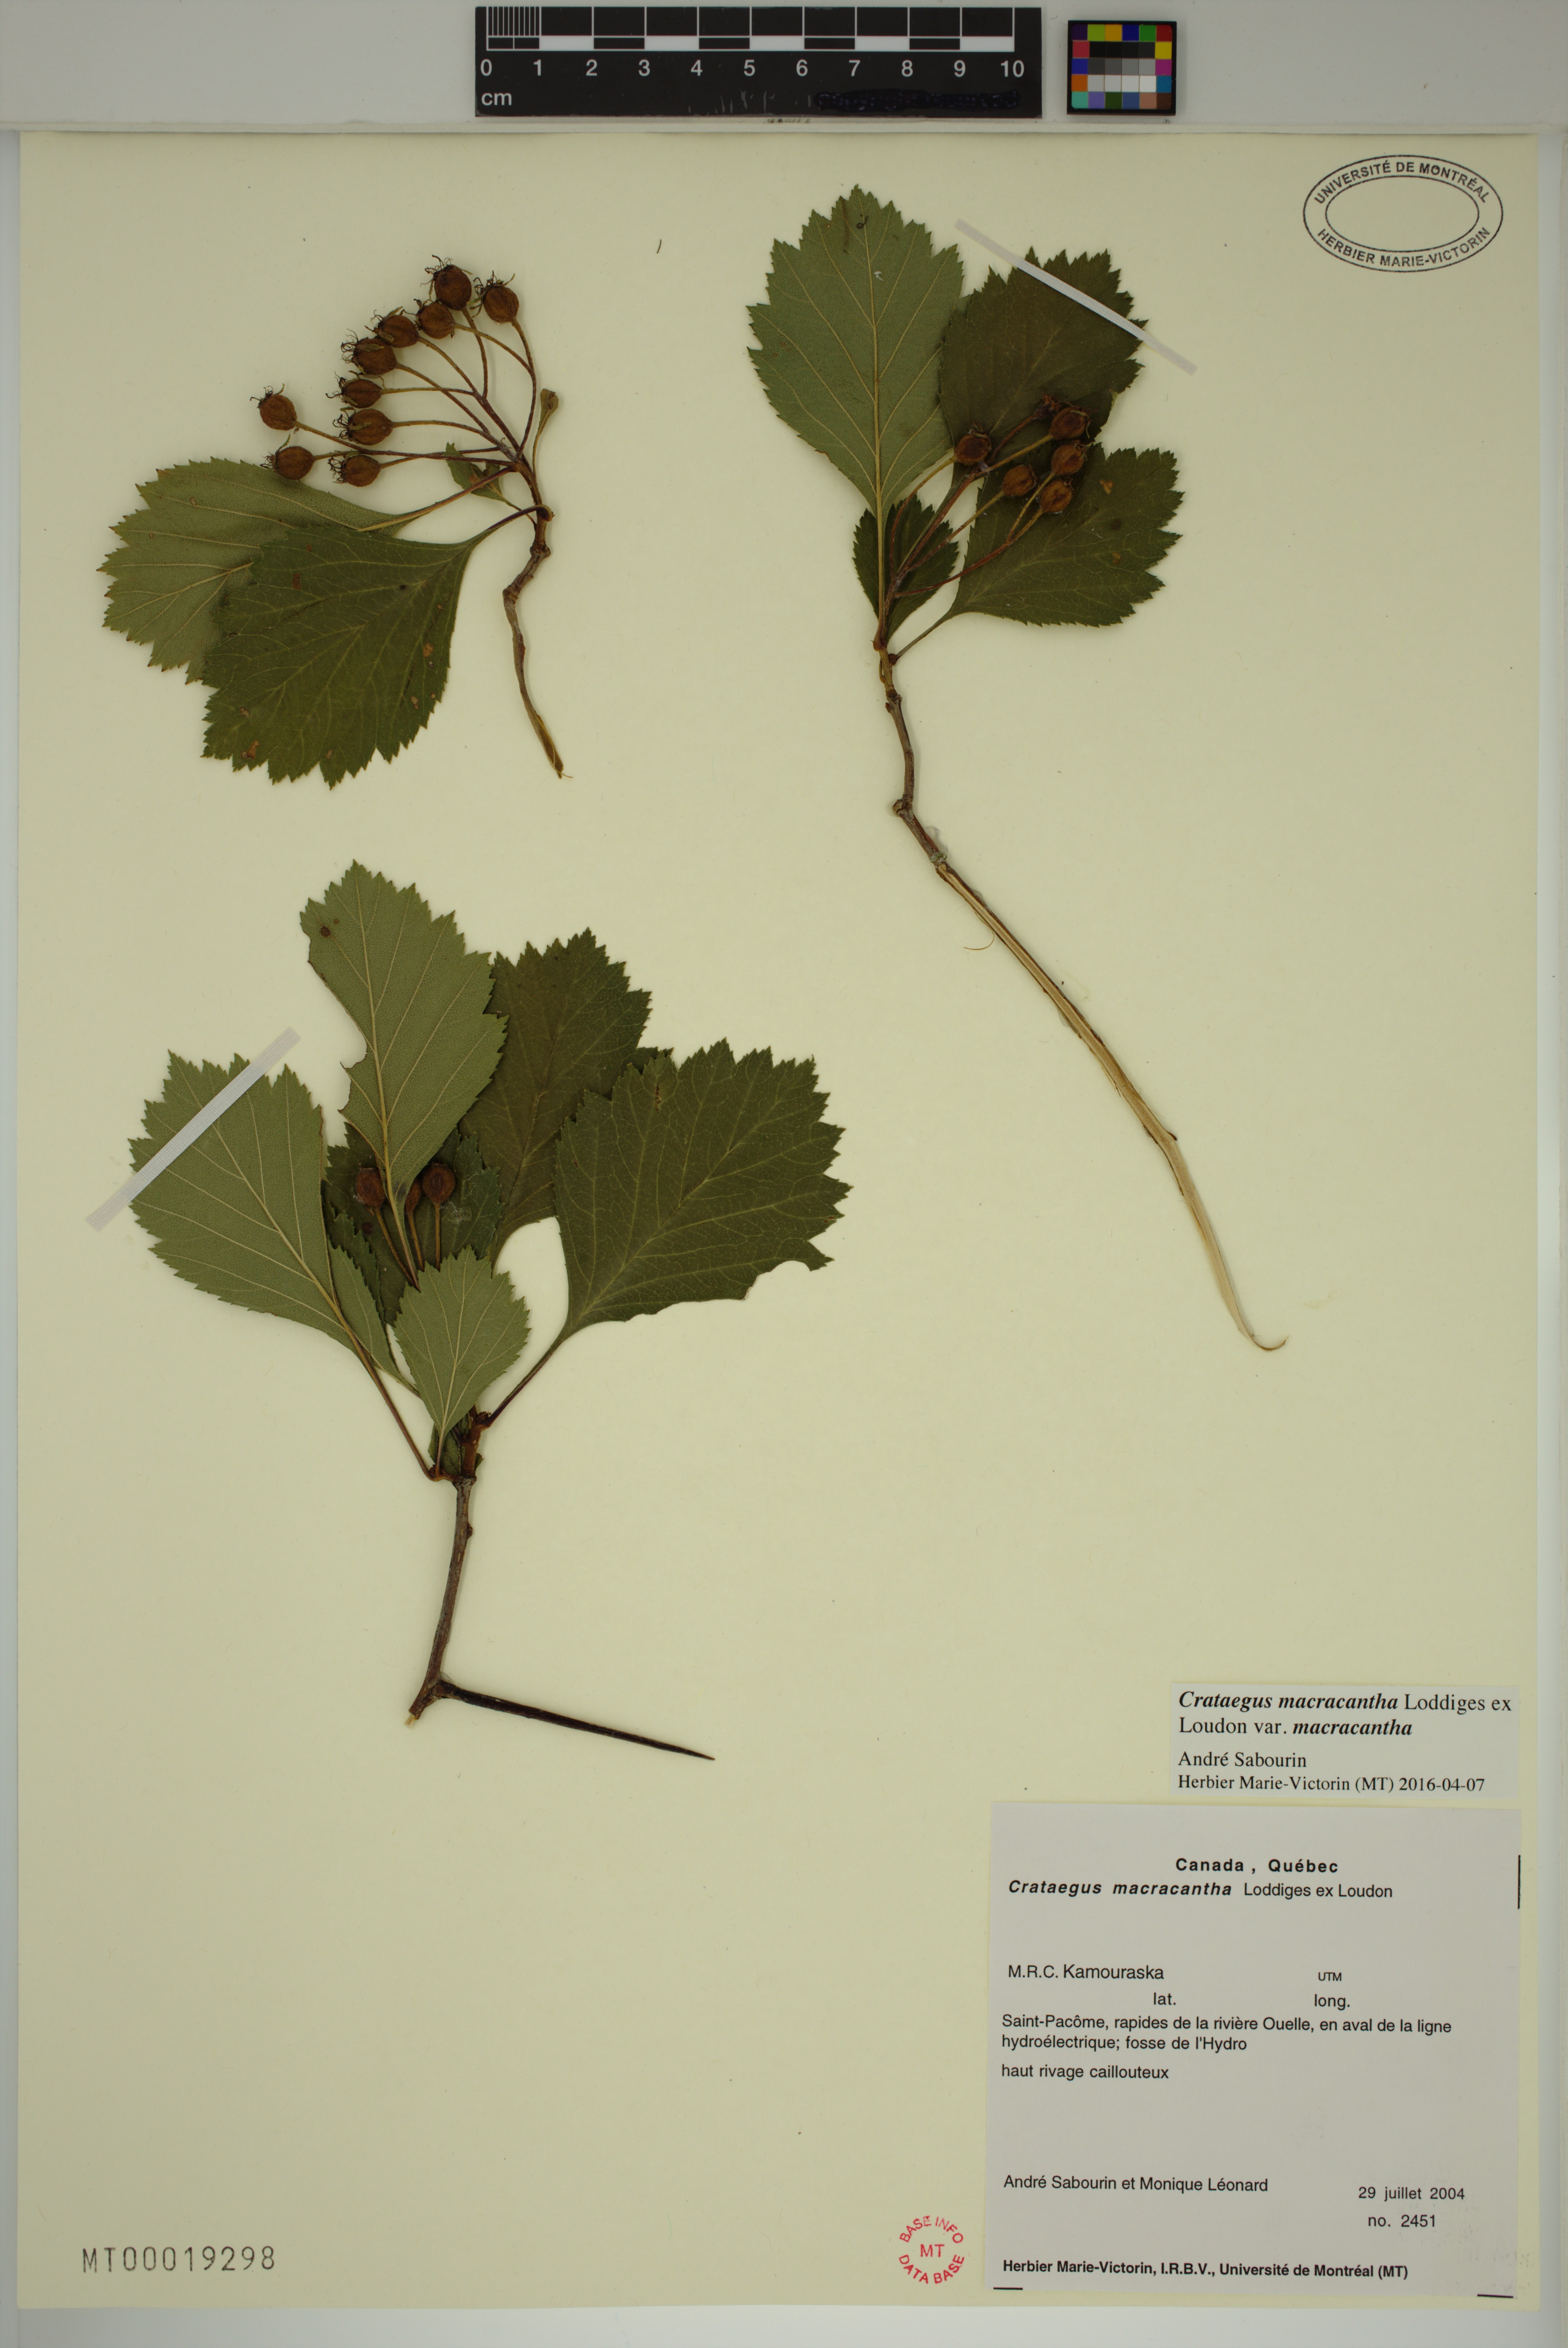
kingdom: Plantae
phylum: Tracheophyta
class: Magnoliopsida
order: Rosales
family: Rosaceae
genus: Crataegus
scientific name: Crataegus macracantha
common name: Large-thorn hawthorn
